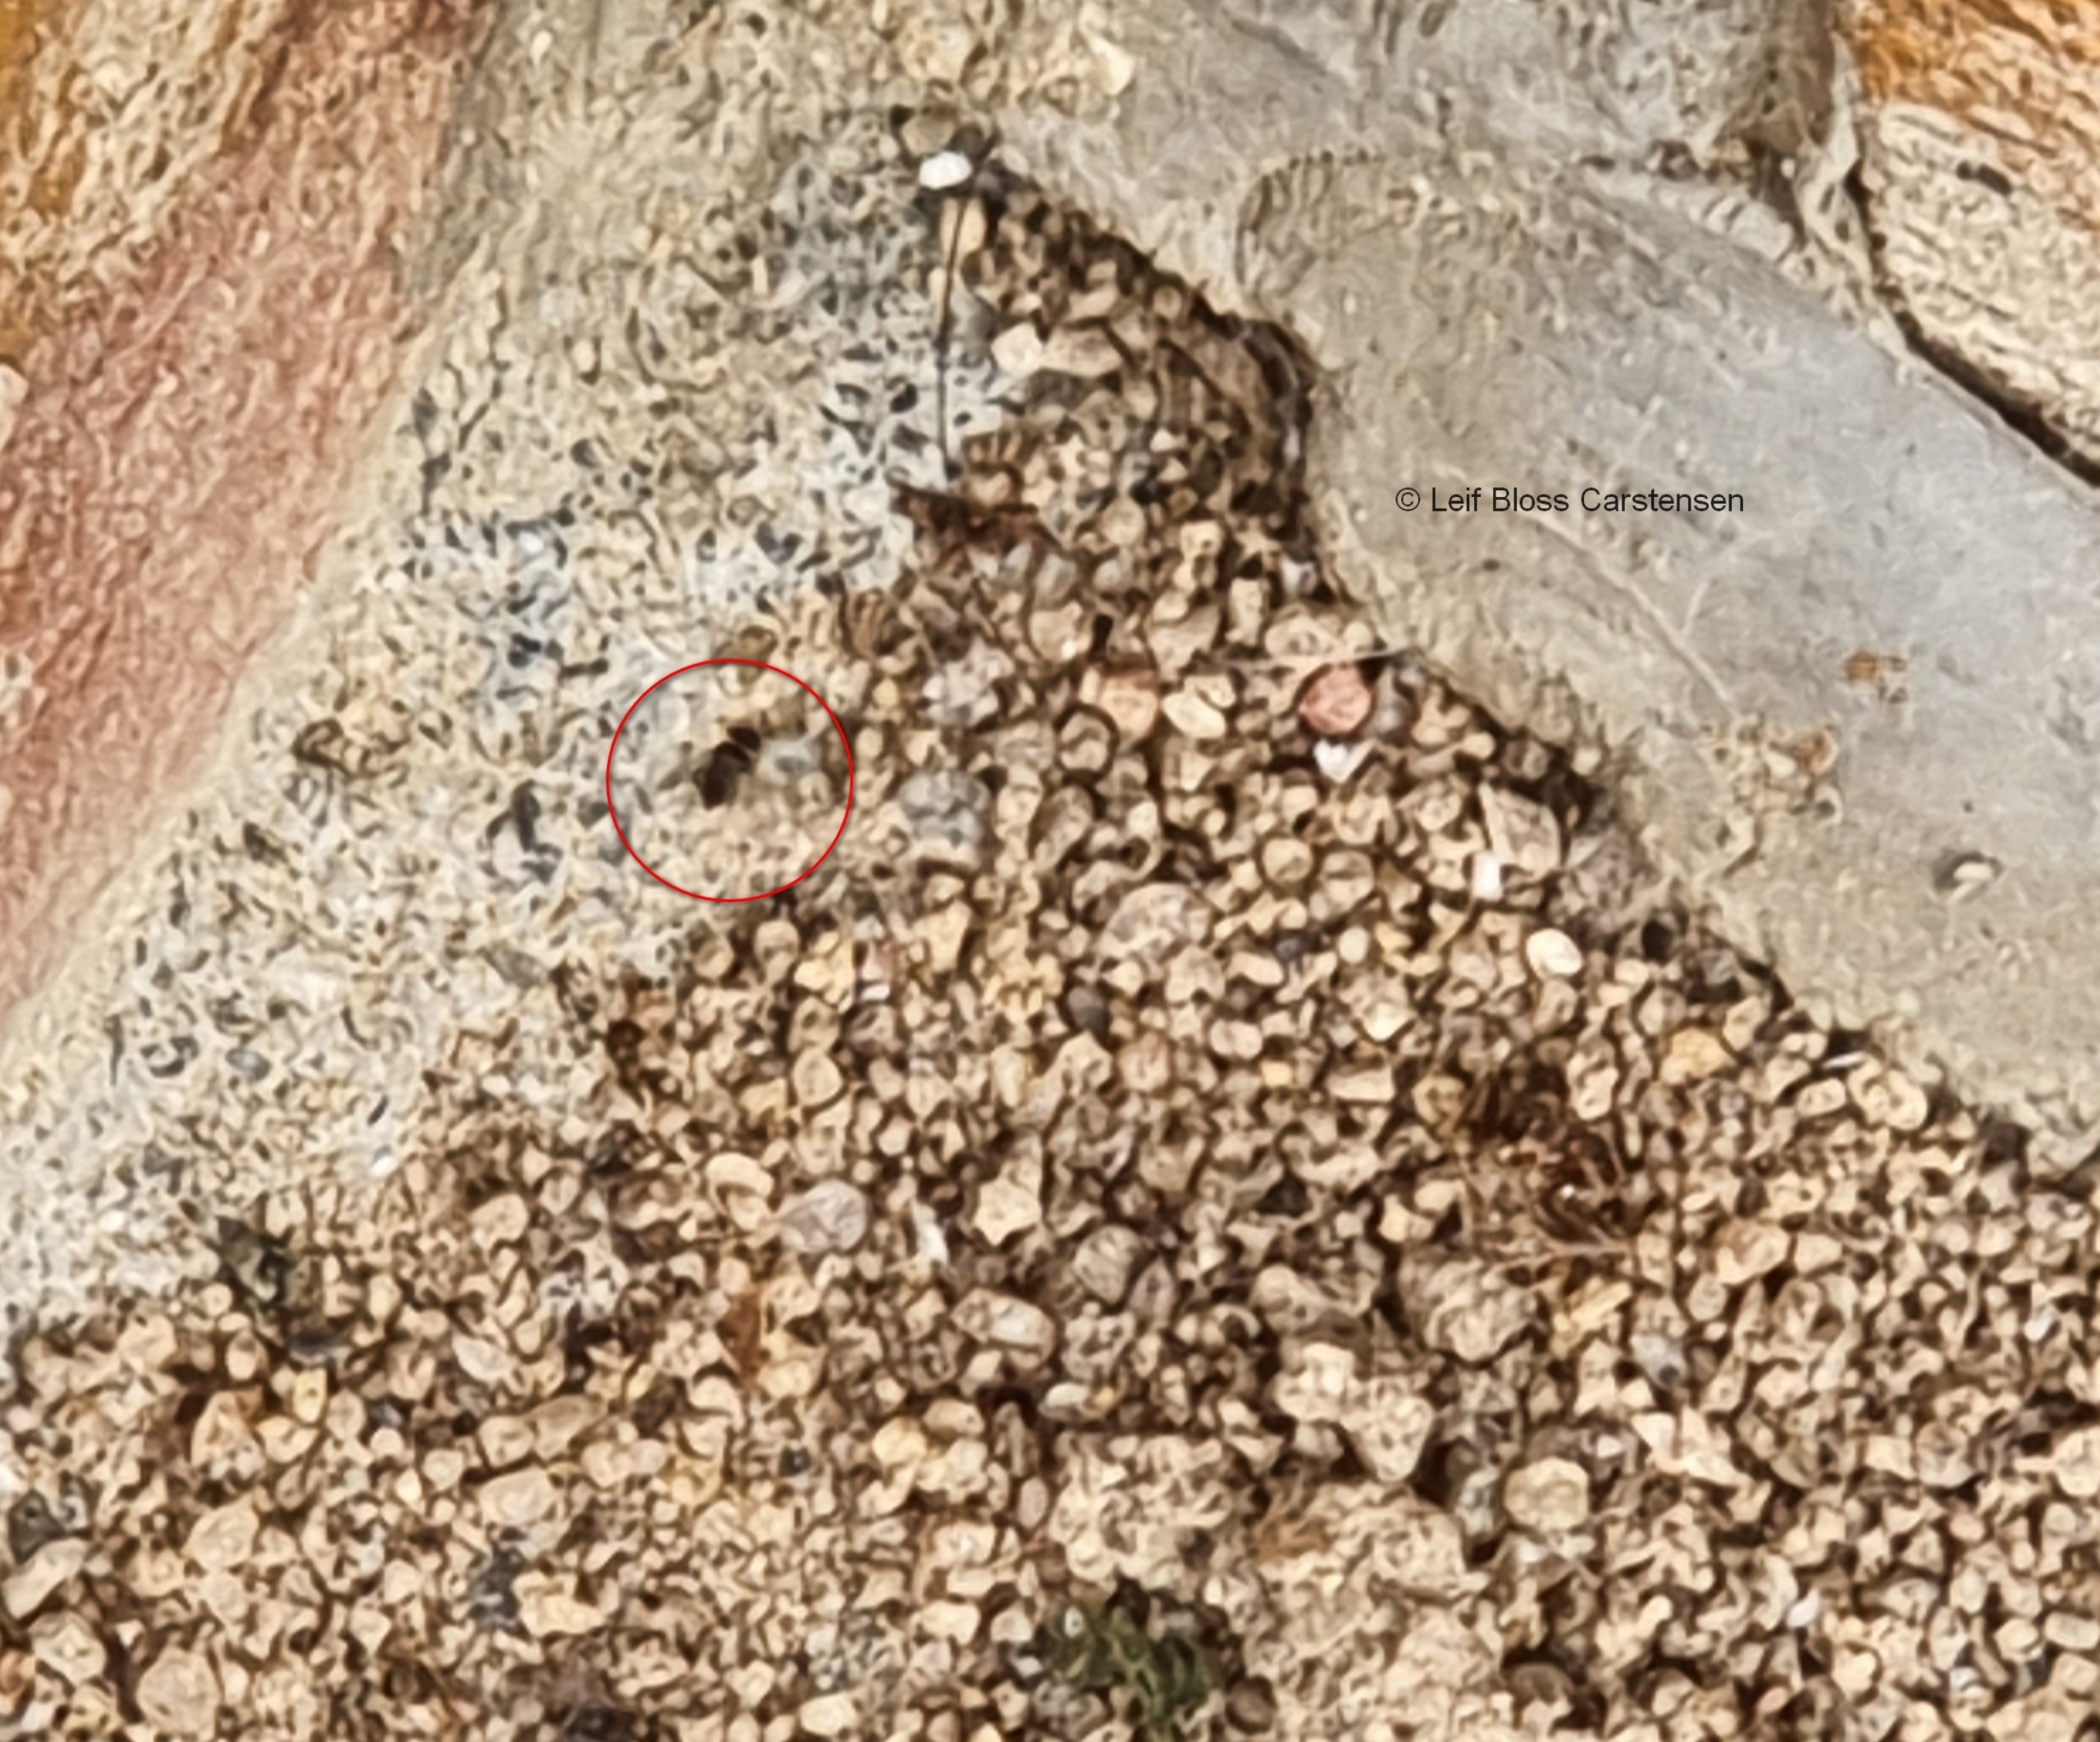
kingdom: Animalia
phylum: Arthropoda
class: Insecta
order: Diptera
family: Phoridae
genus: Pseudacteon
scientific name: Pseudacteon formicarum
